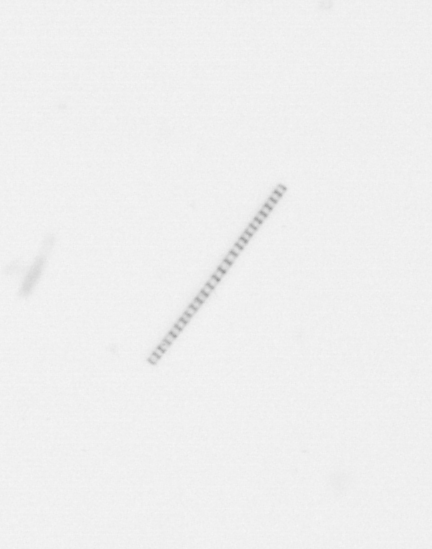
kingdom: Chromista
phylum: Ochrophyta
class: Bacillariophyceae
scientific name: Bacillariophyceae
